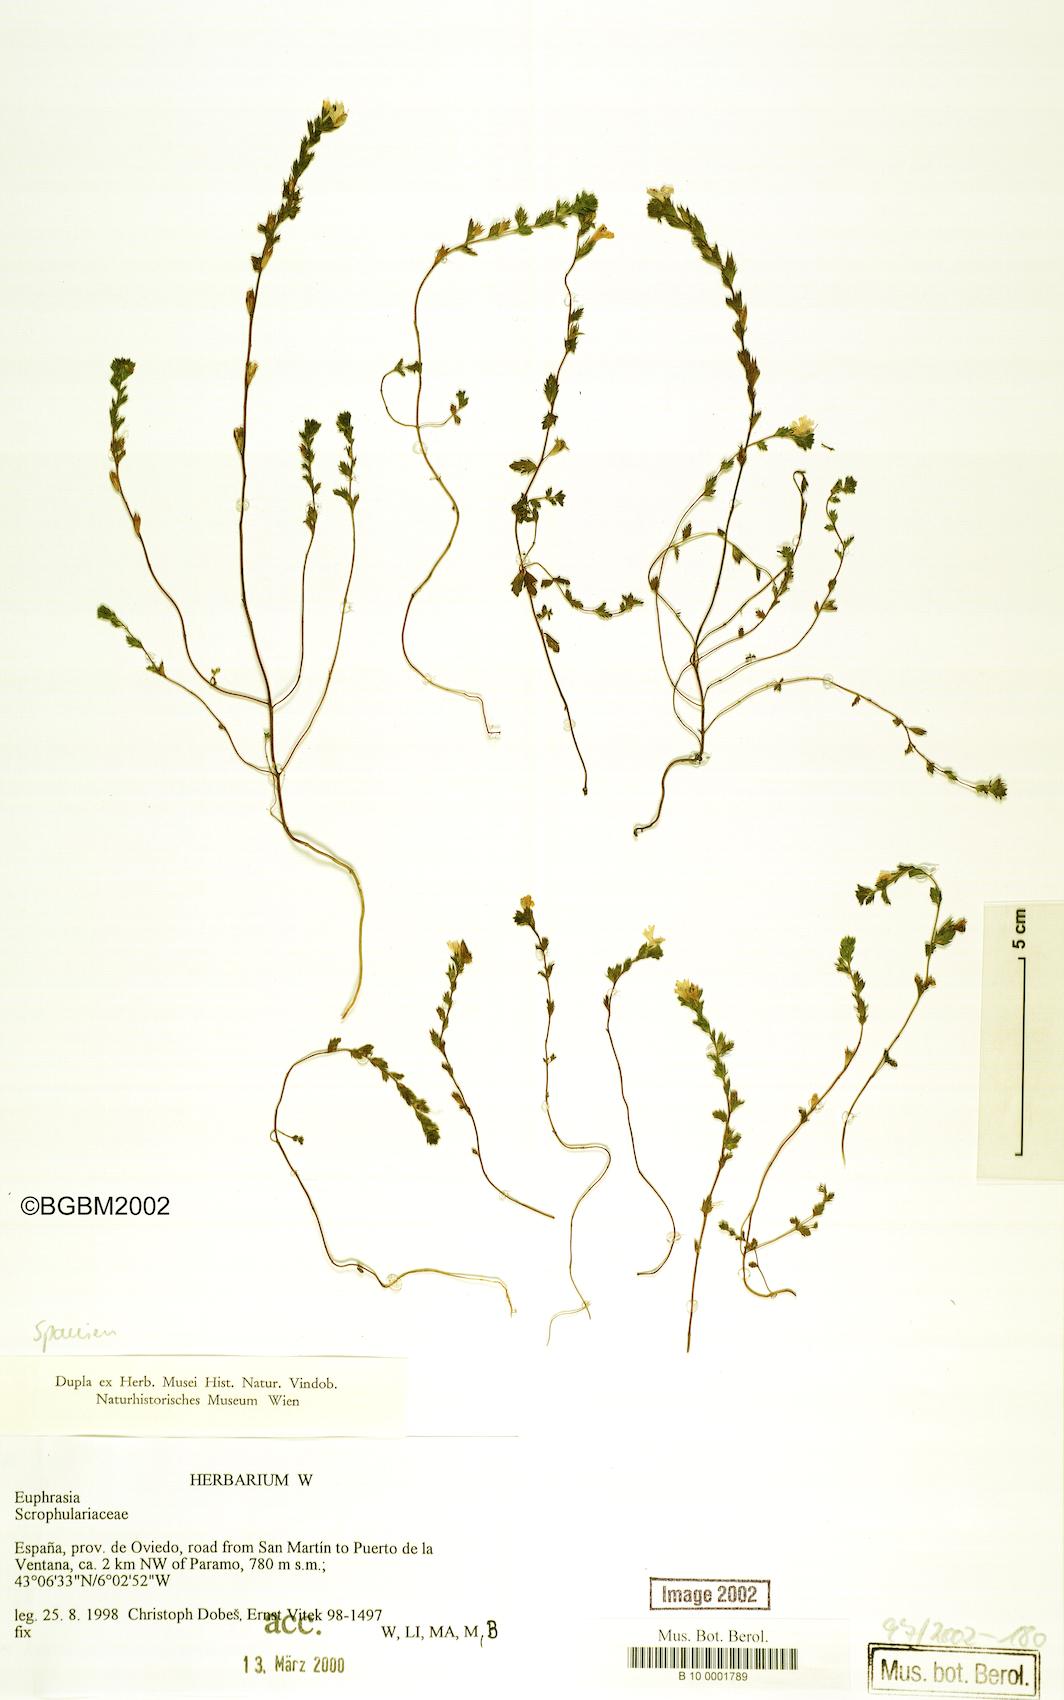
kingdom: Plantae
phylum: Tracheophyta
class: Magnoliopsida
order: Lamiales
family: Orobanchaceae
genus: Euphrasia
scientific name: Euphrasia
